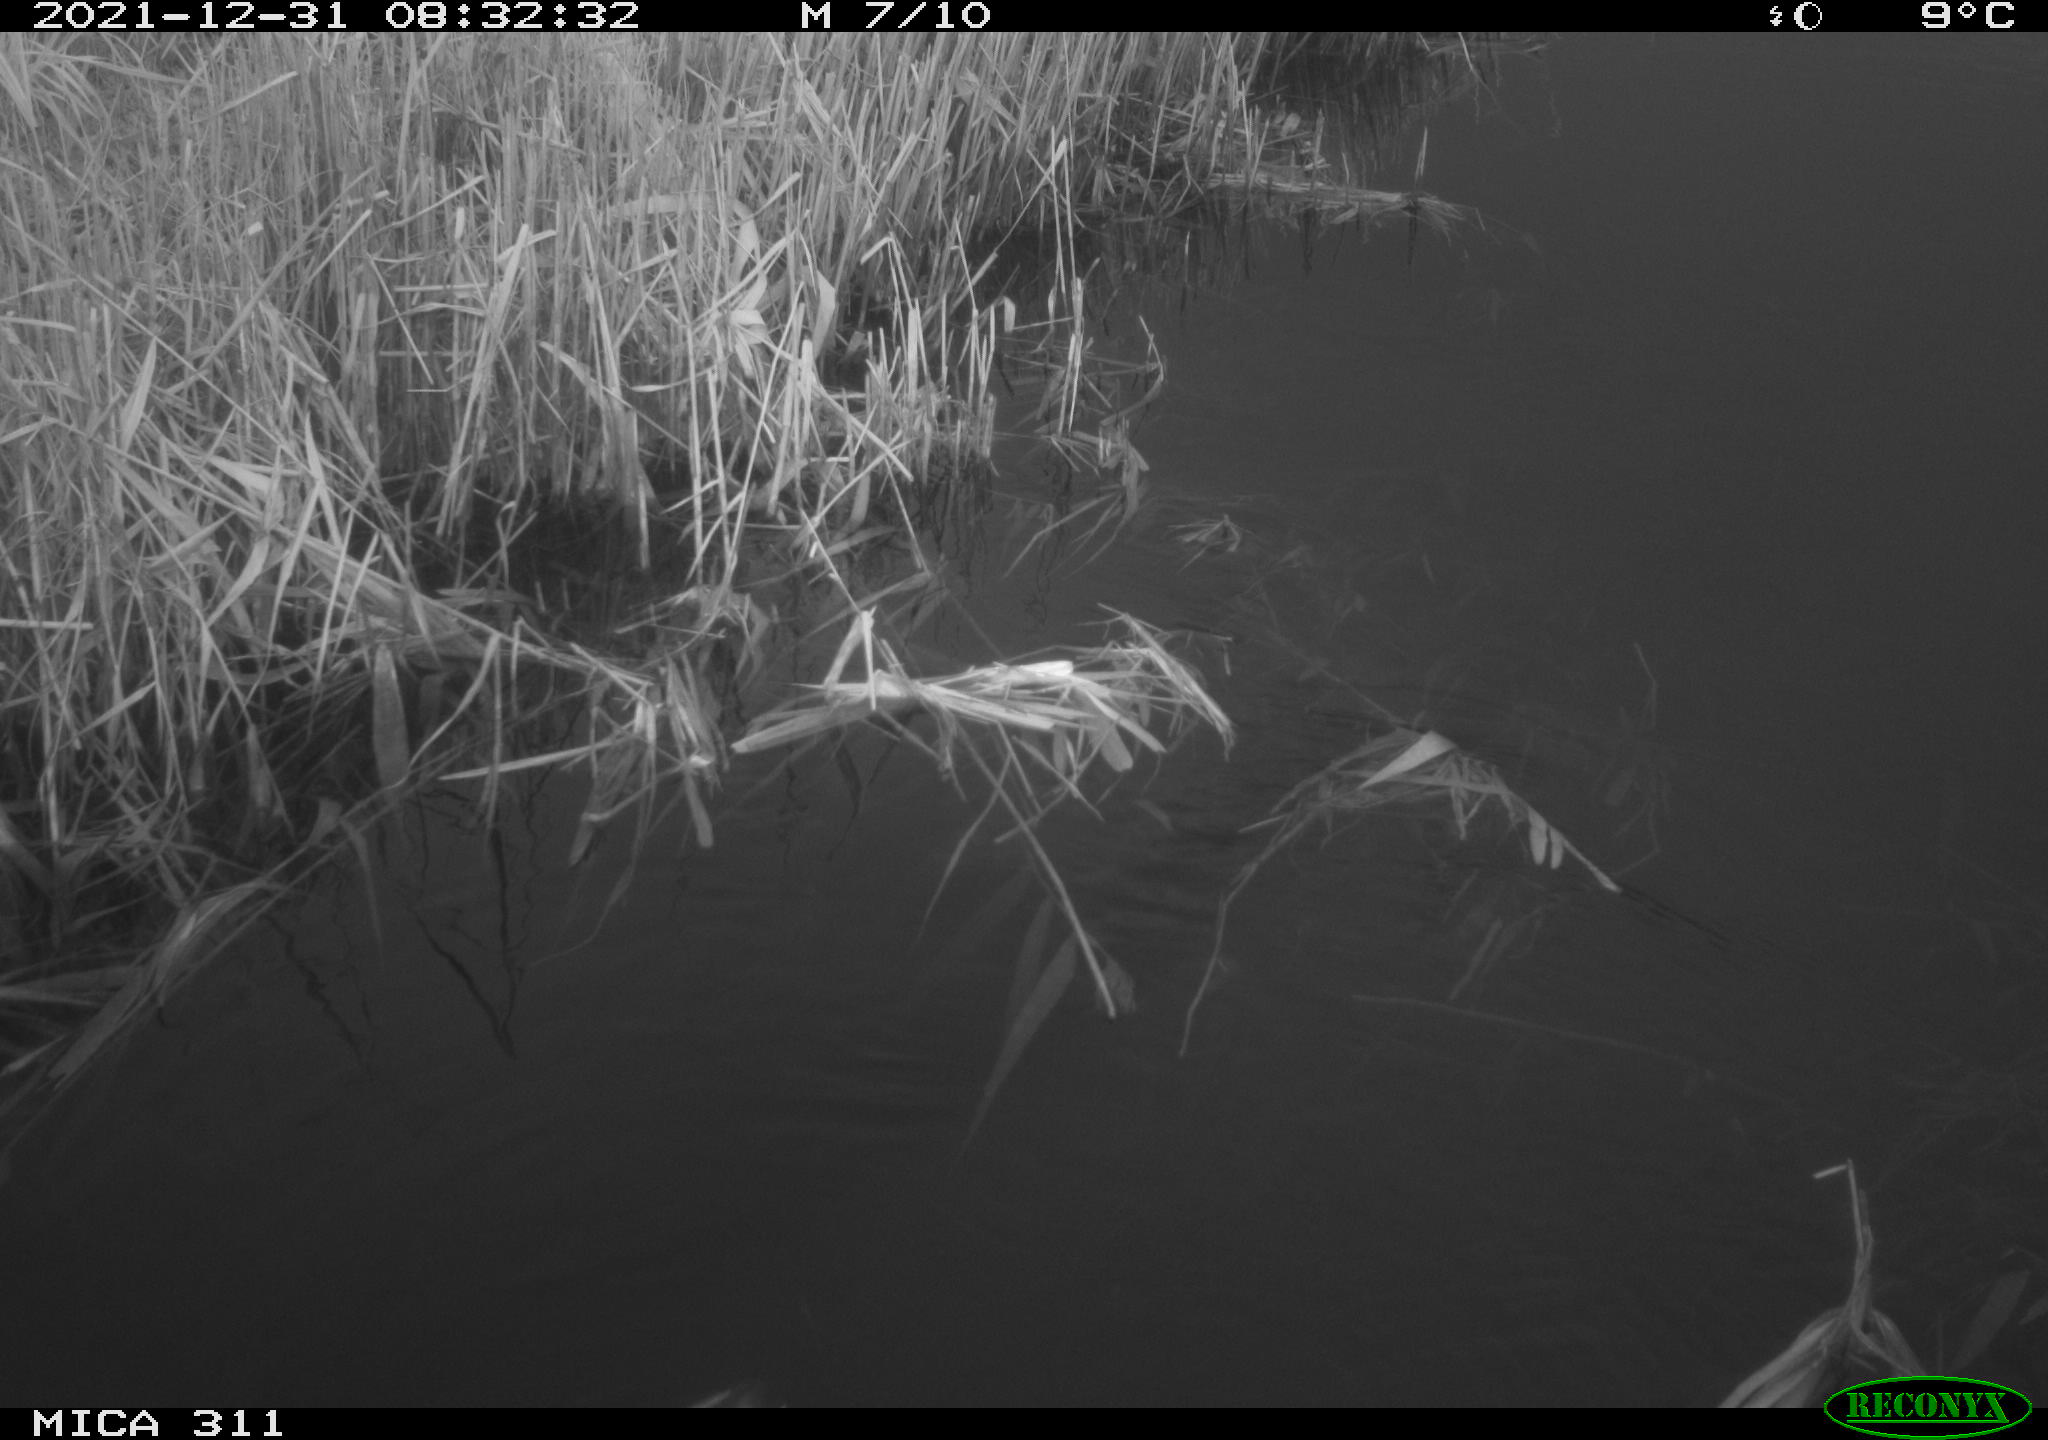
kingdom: Animalia
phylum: Chordata
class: Aves
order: Gruiformes
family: Rallidae
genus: Gallinula
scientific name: Gallinula chloropus
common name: Common moorhen
